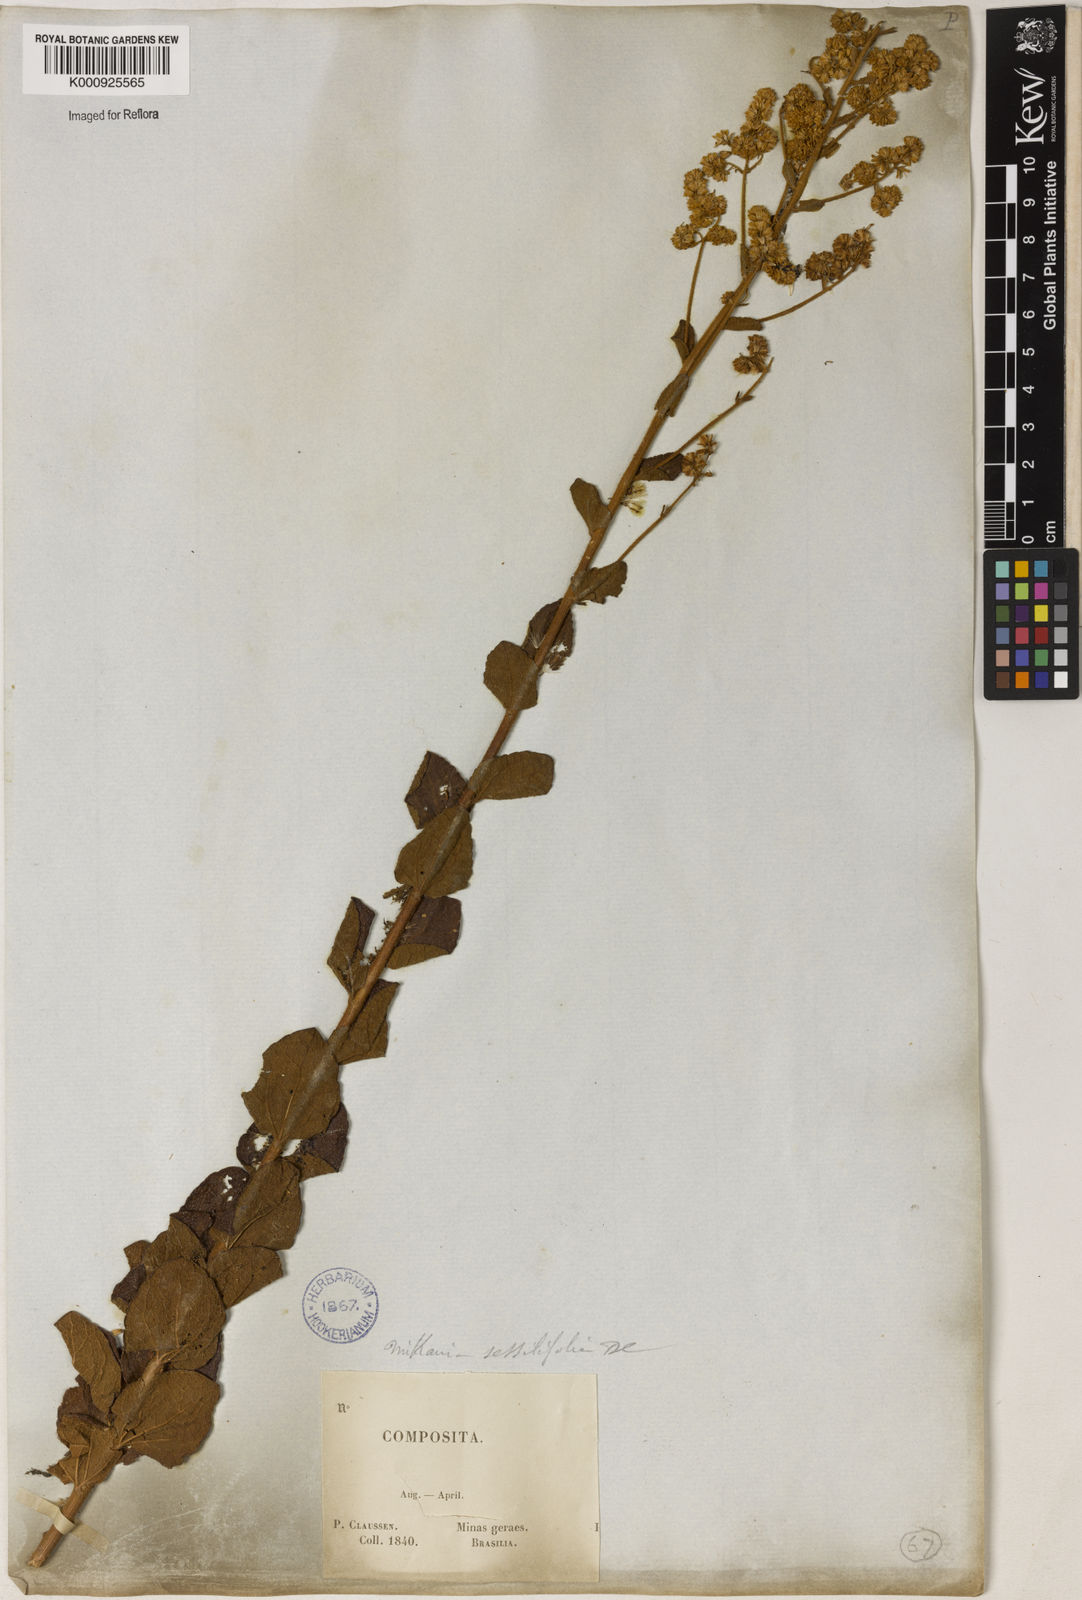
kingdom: Plantae
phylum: Tracheophyta
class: Magnoliopsida
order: Asterales
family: Asteraceae
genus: Mikania
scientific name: Mikania sessilifolia
